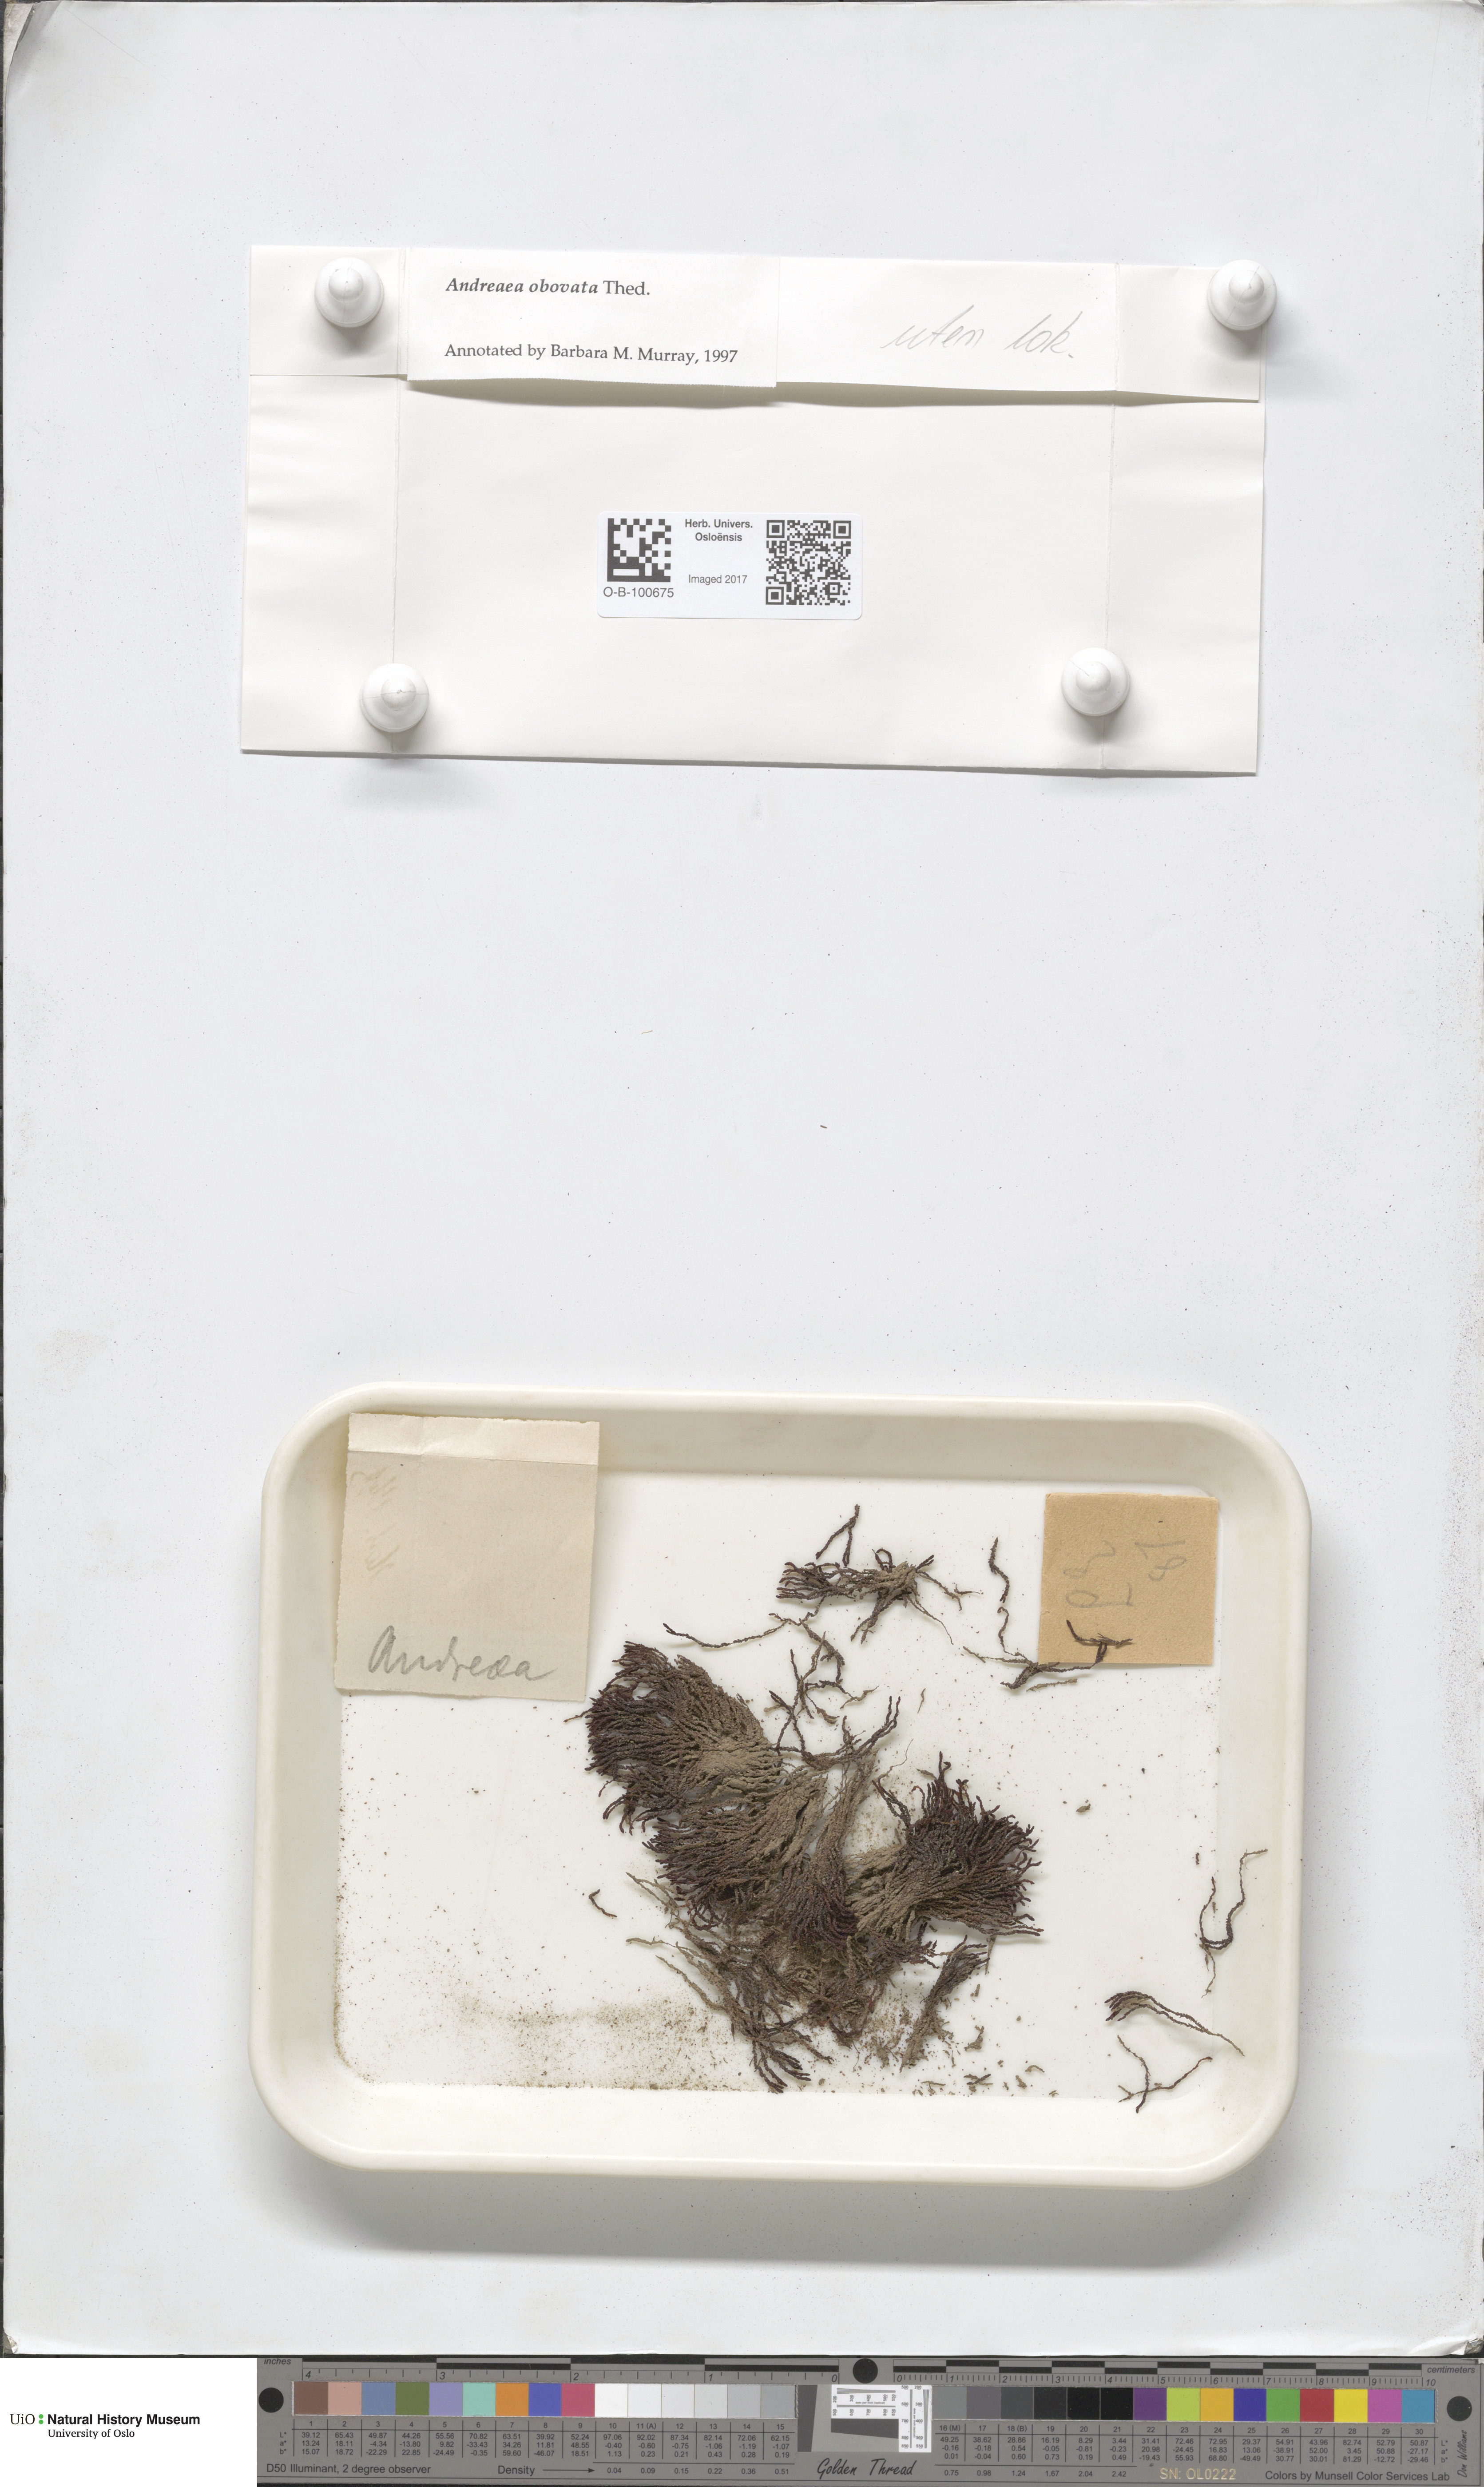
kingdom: Plantae
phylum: Bryophyta
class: Andreaeopsida
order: Andreaeales
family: Andreaeaceae
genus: Andreaea
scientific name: Andreaea alpina
